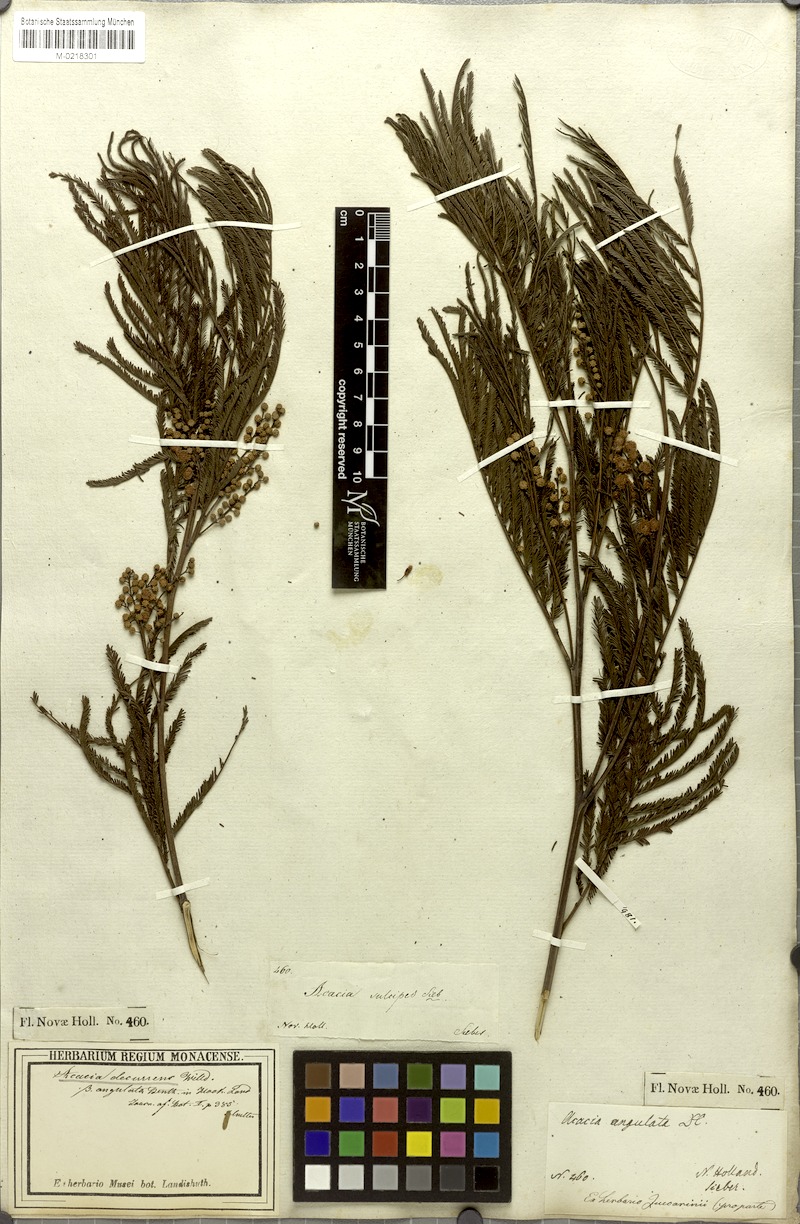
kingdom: Plantae
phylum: Tracheophyta
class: Magnoliopsida
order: Fabales
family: Fabaceae
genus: Acacia
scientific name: Acacia parramattensis
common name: Sydney green wattle
